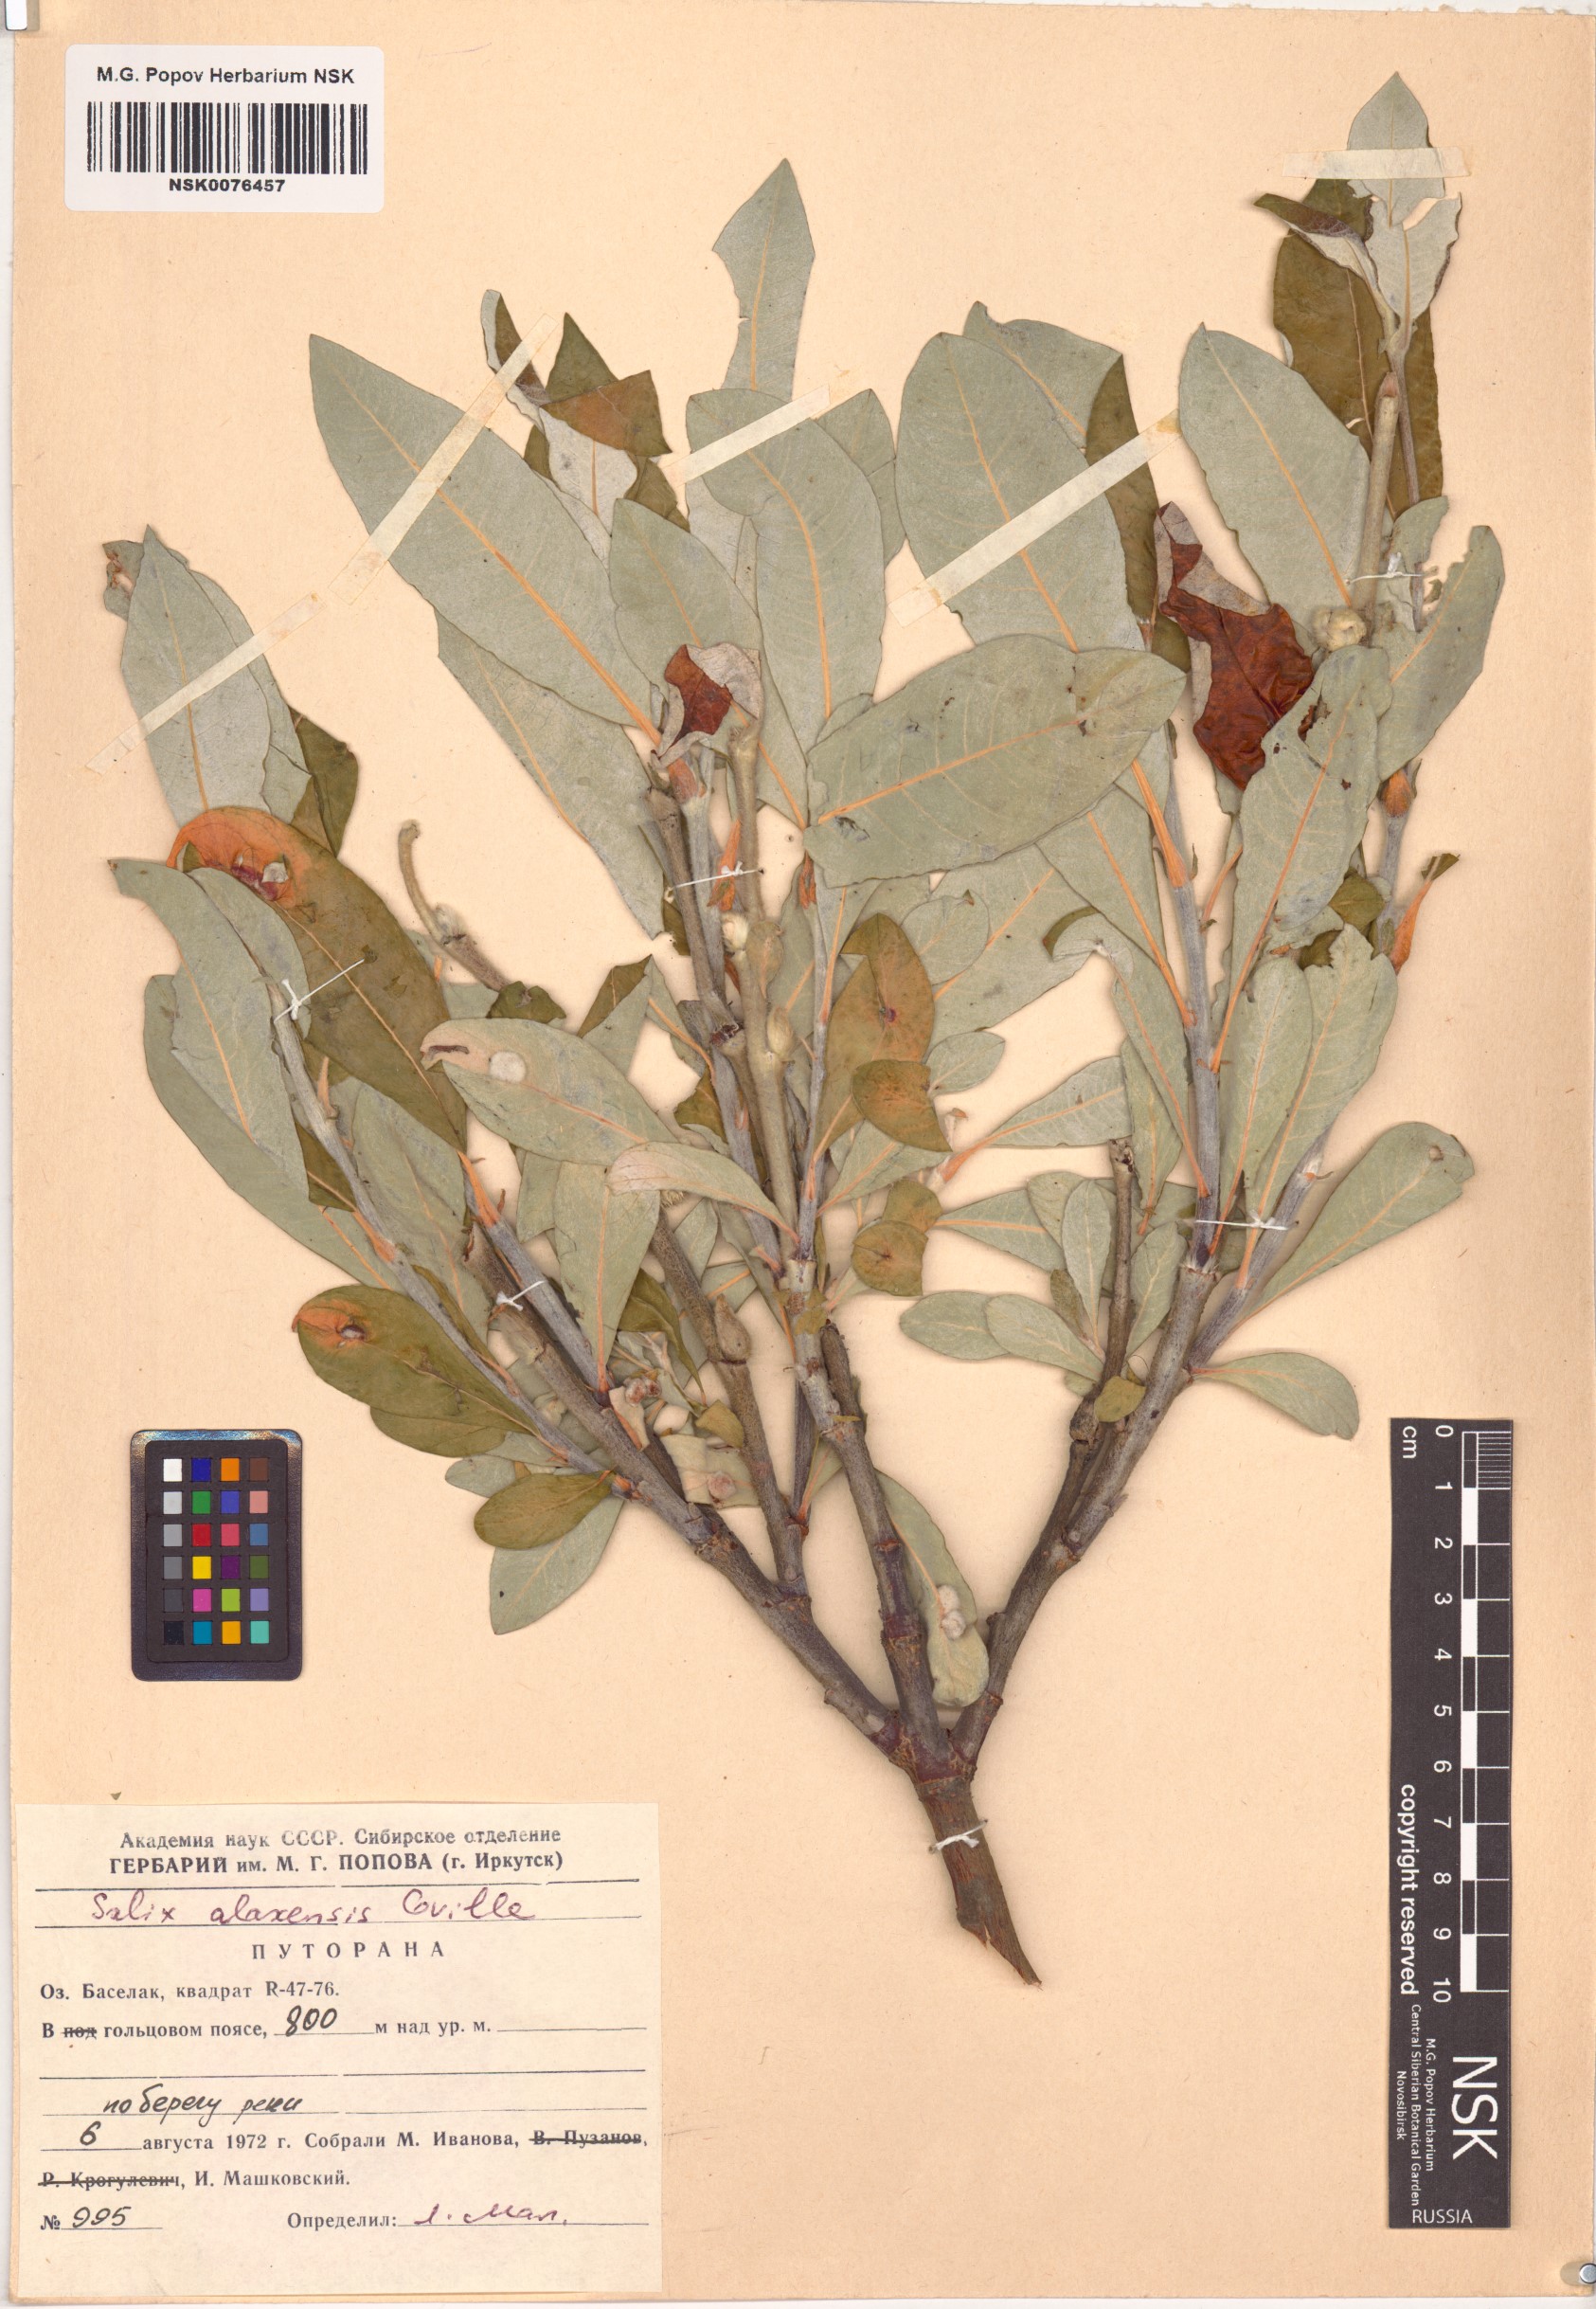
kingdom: Plantae
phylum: Tracheophyta
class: Magnoliopsida
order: Malpighiales
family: Salicaceae
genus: Salix
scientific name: Salix alaxensis
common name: Feltleaf willow
